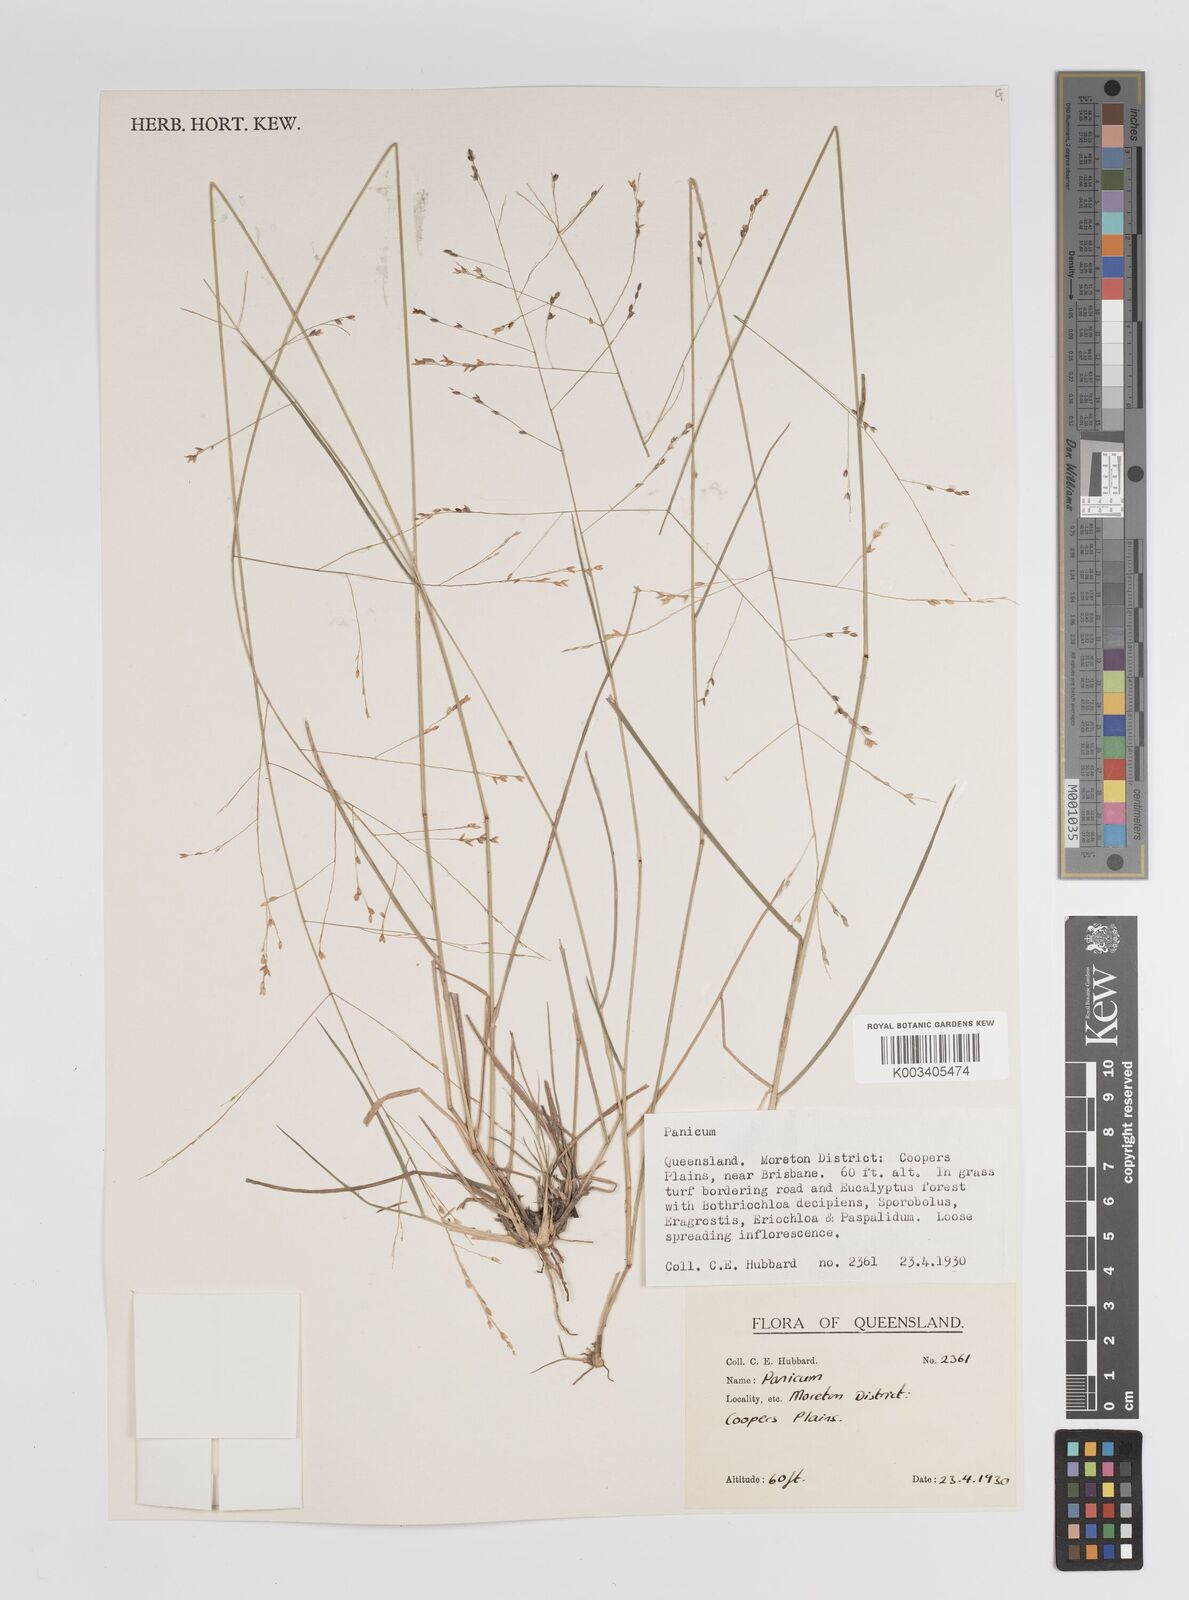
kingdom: Plantae
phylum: Tracheophyta
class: Liliopsida
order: Poales
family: Poaceae
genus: Panicum
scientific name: Panicum
